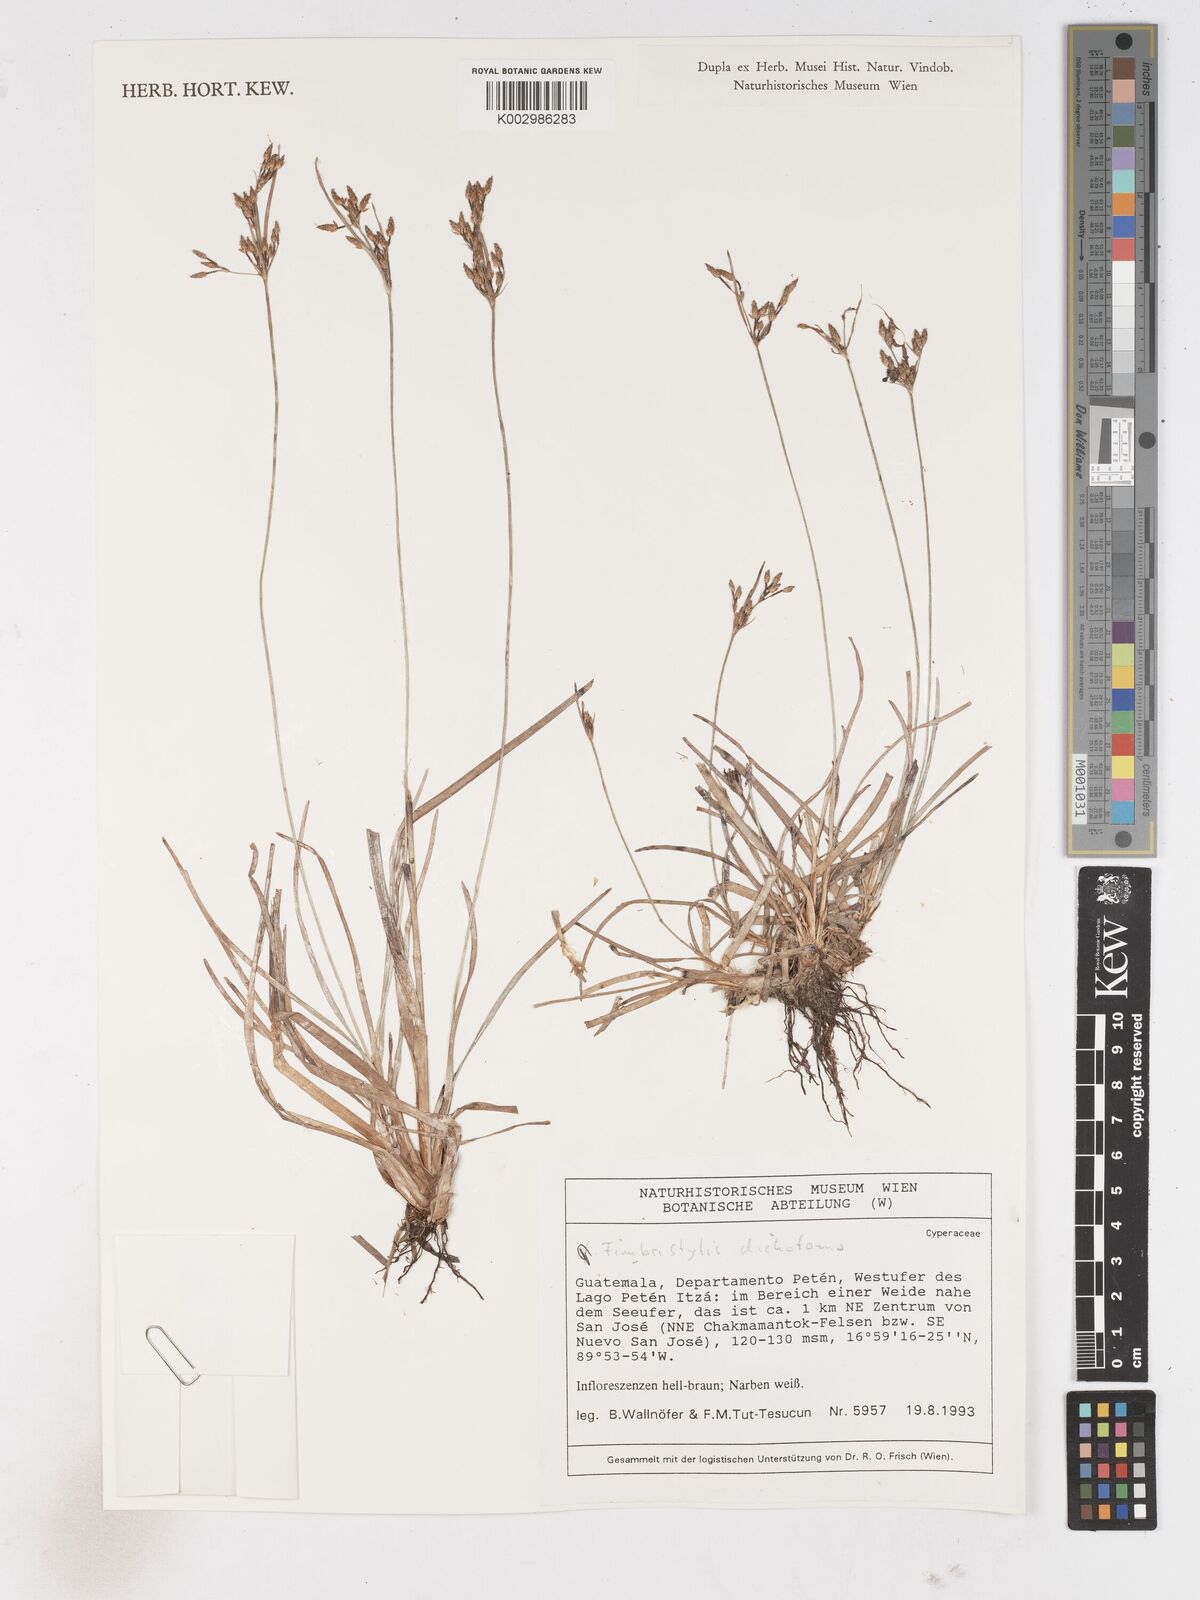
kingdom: Plantae
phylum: Tracheophyta
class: Liliopsida
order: Poales
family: Cyperaceae
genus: Fimbristylis
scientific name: Fimbristylis dichotoma
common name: Forked fimbry
